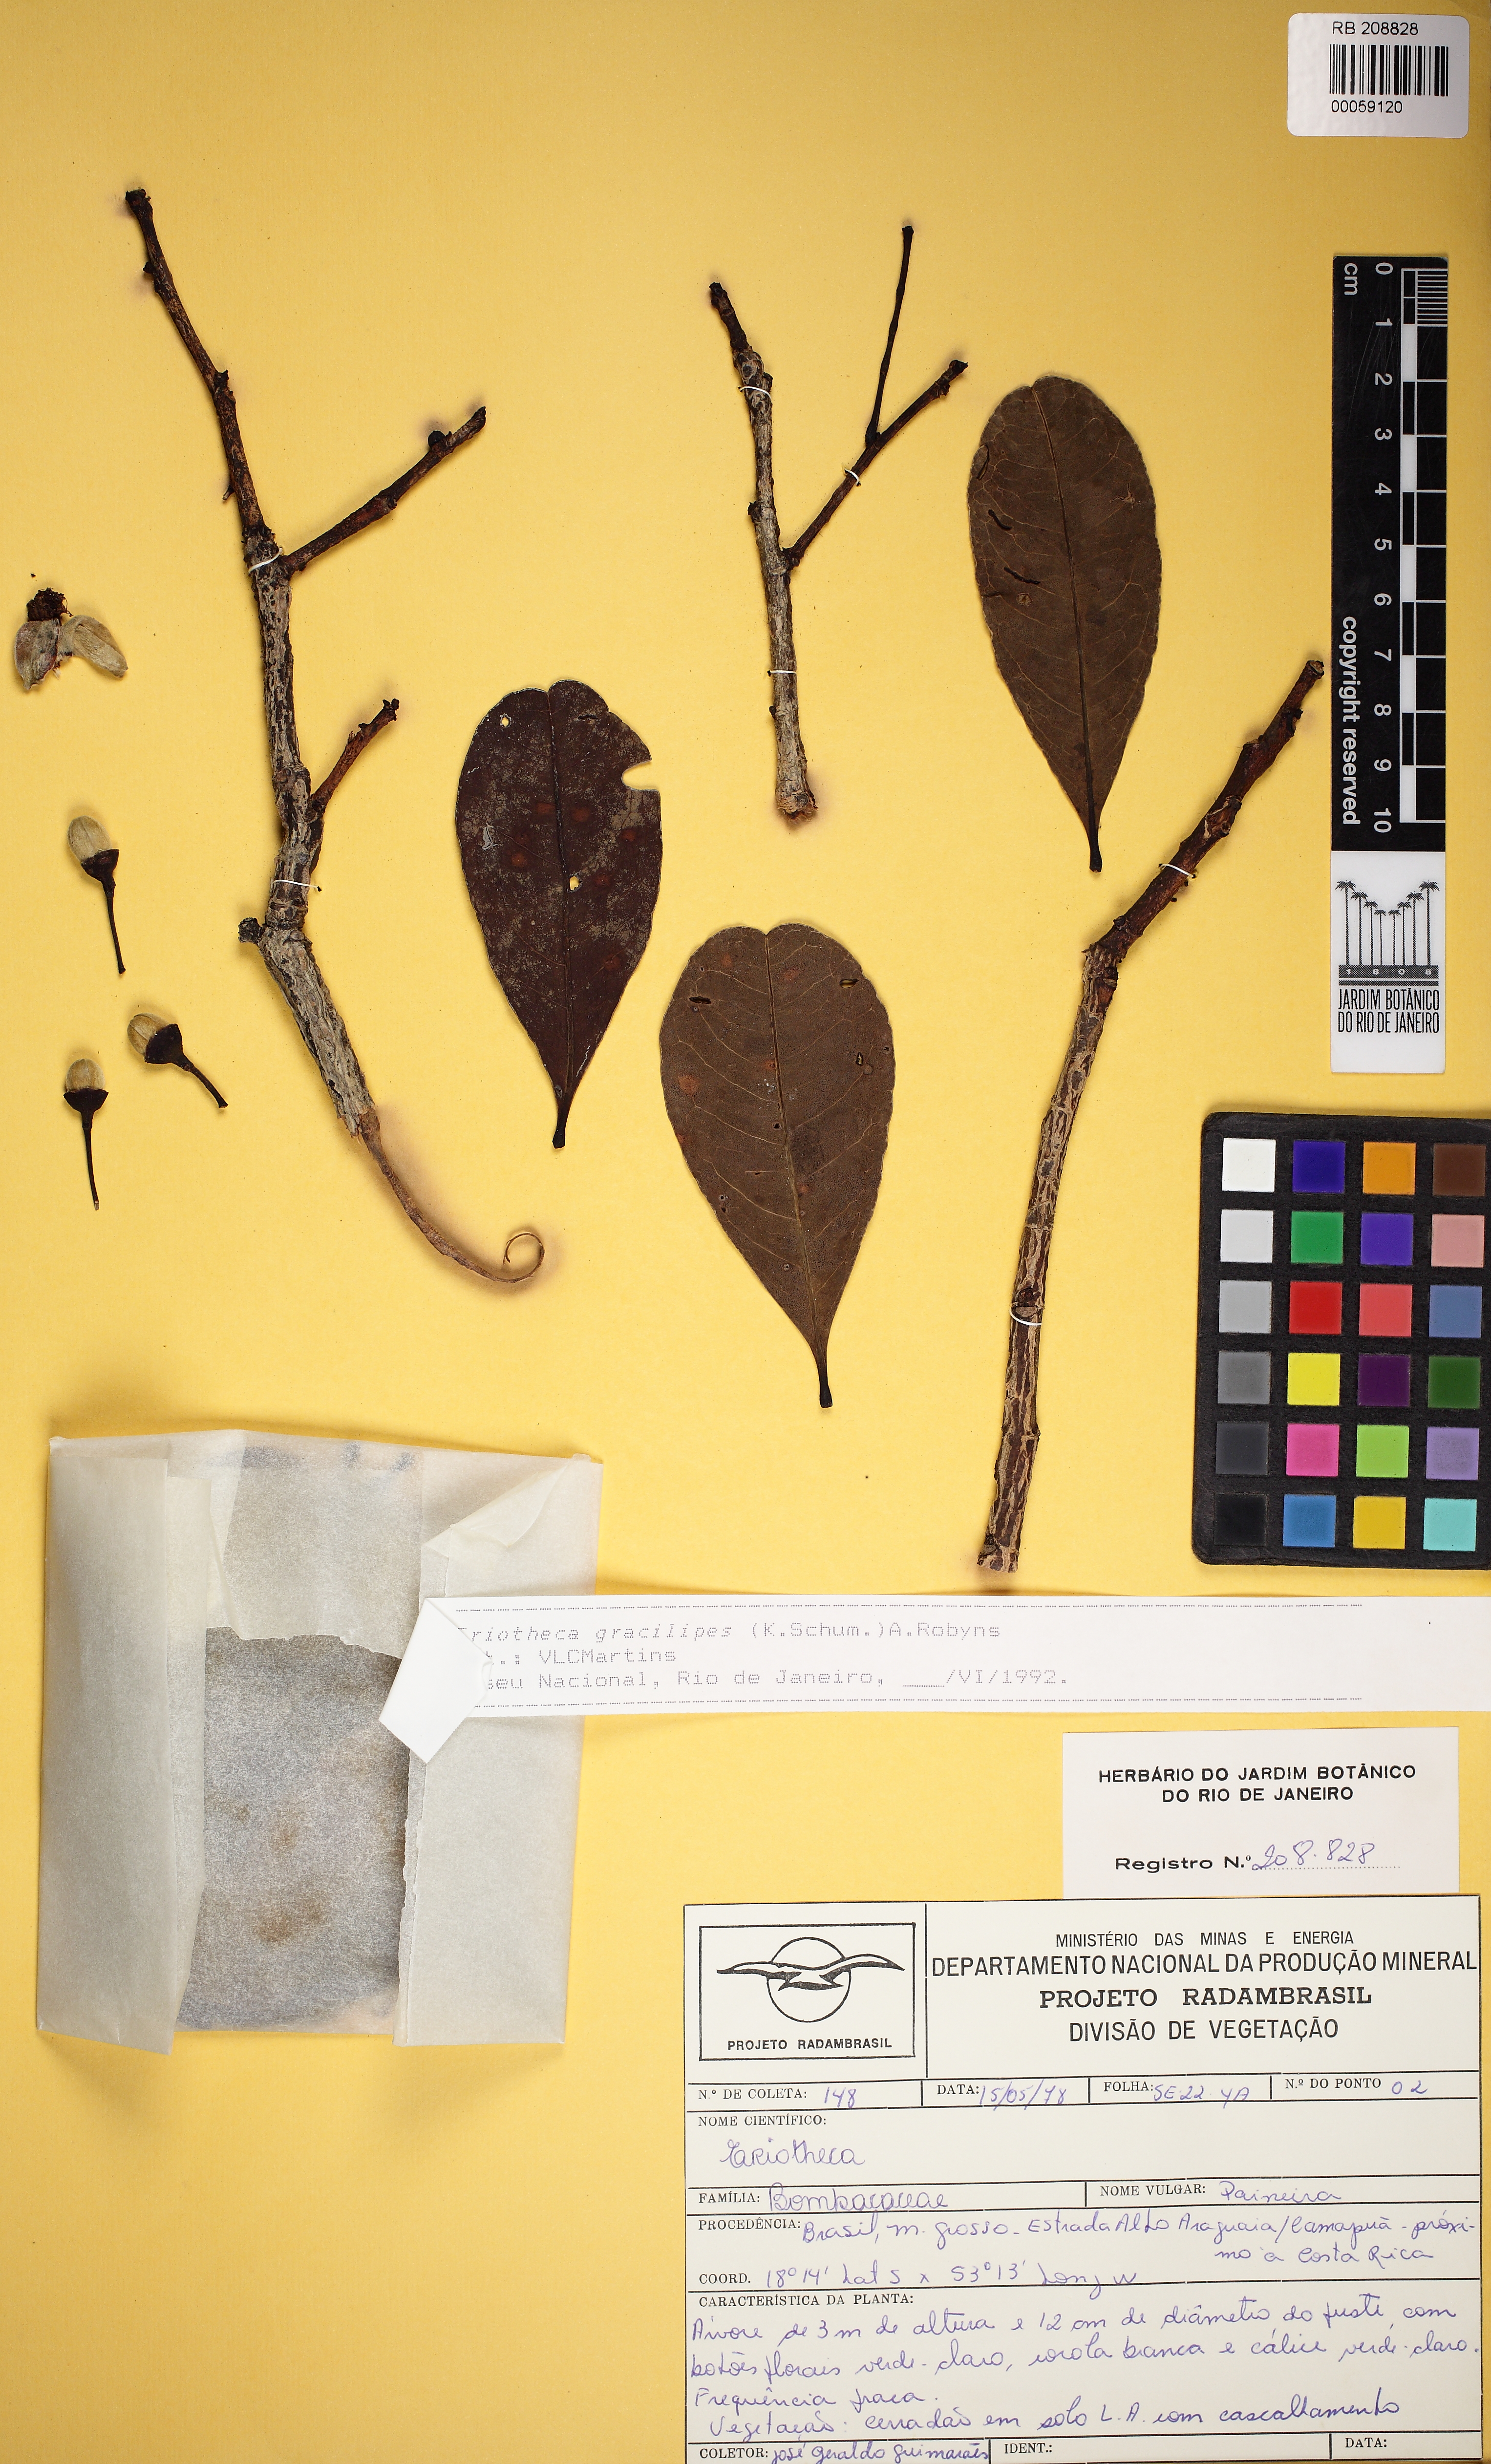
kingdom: Plantae
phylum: Tracheophyta
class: Magnoliopsida
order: Malvales
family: Malvaceae
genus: Eriotheca
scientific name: Eriotheca gracilipes
